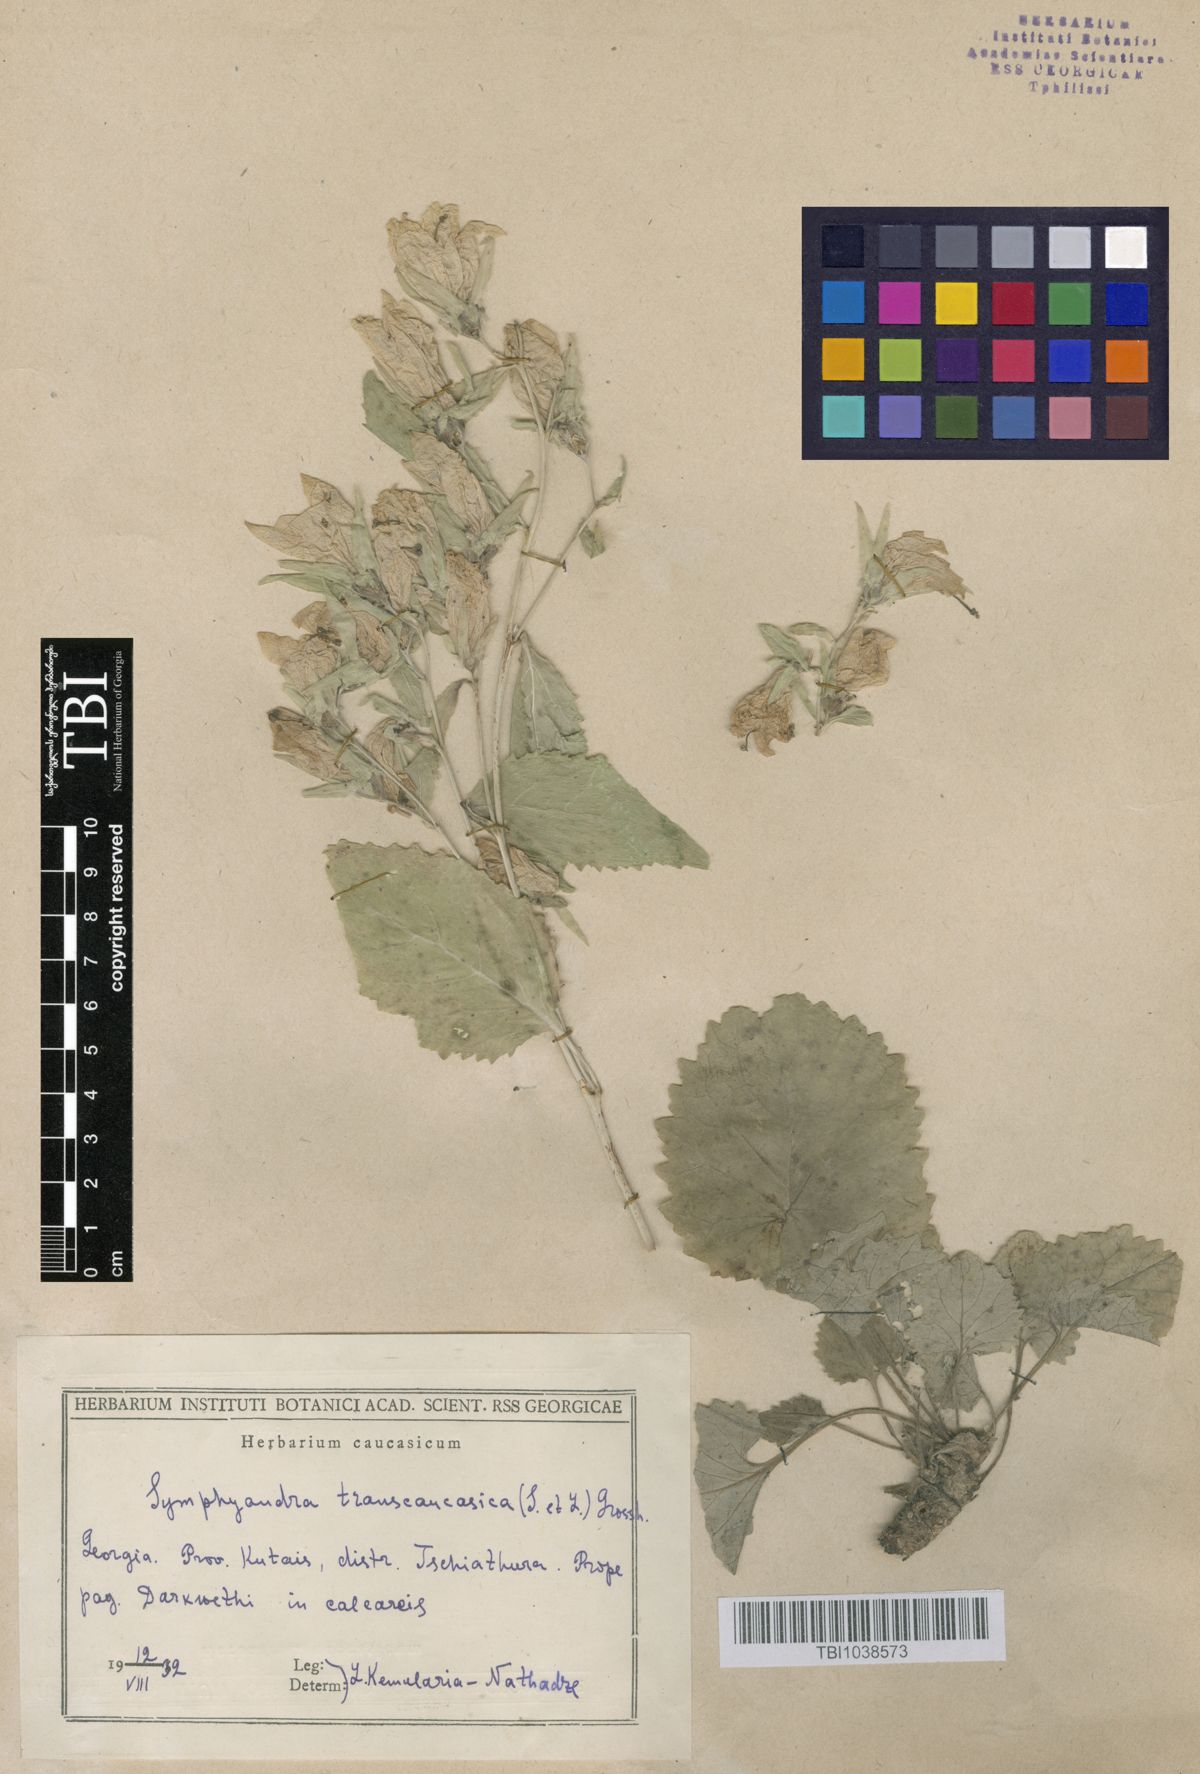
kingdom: Plantae
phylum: Tracheophyta
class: Magnoliopsida
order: Asterales
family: Campanulaceae
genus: Campanula
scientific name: Campanula pendula
